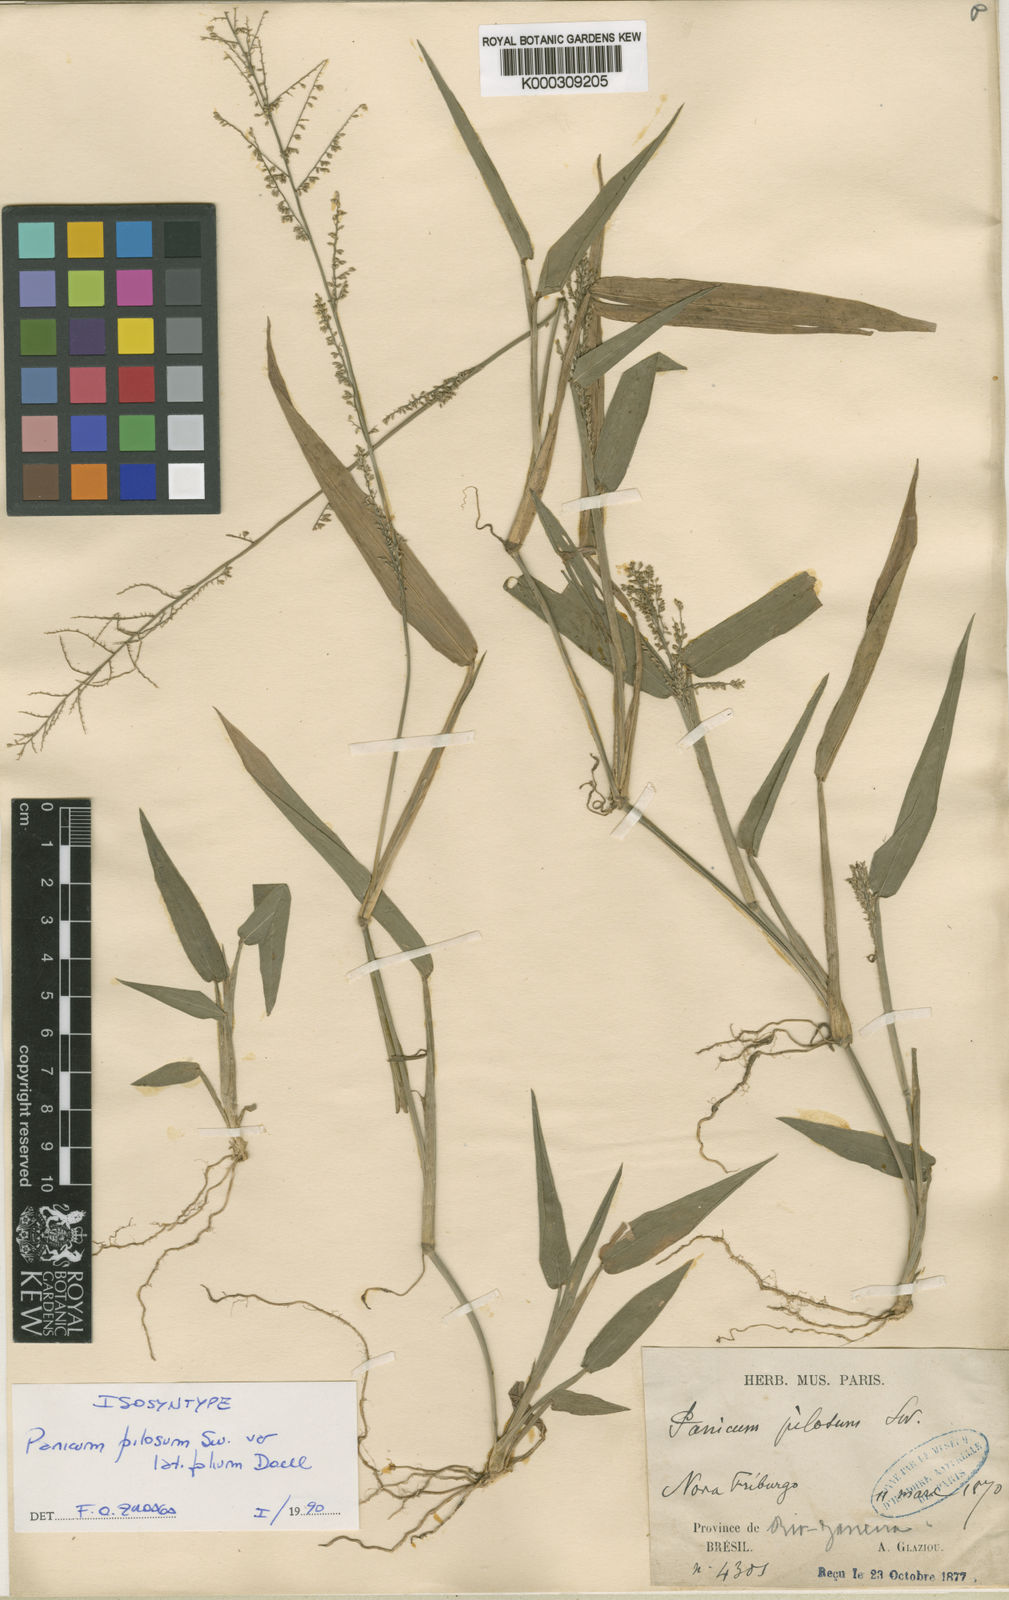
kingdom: Plantae
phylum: Tracheophyta
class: Liliopsida
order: Poales
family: Poaceae
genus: Rugoloa
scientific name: Rugoloa pilosa
